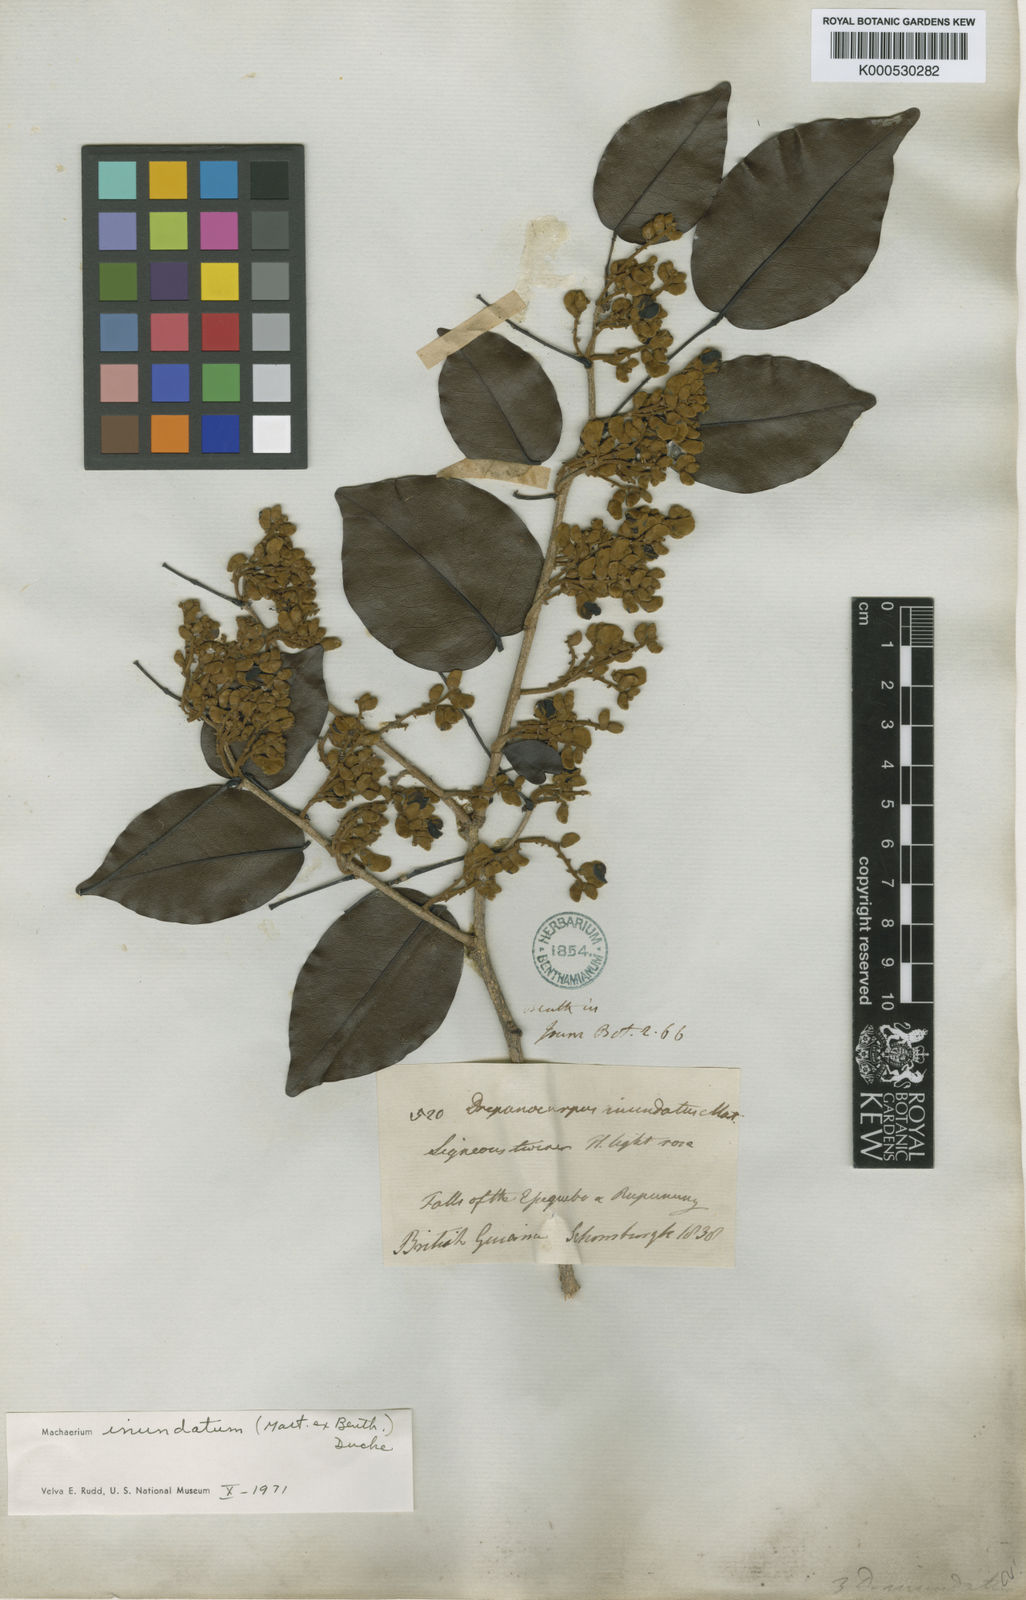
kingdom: Plantae
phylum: Tracheophyta
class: Magnoliopsida
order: Fabales
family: Fabaceae
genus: Machaerium
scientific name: Machaerium inundatum
